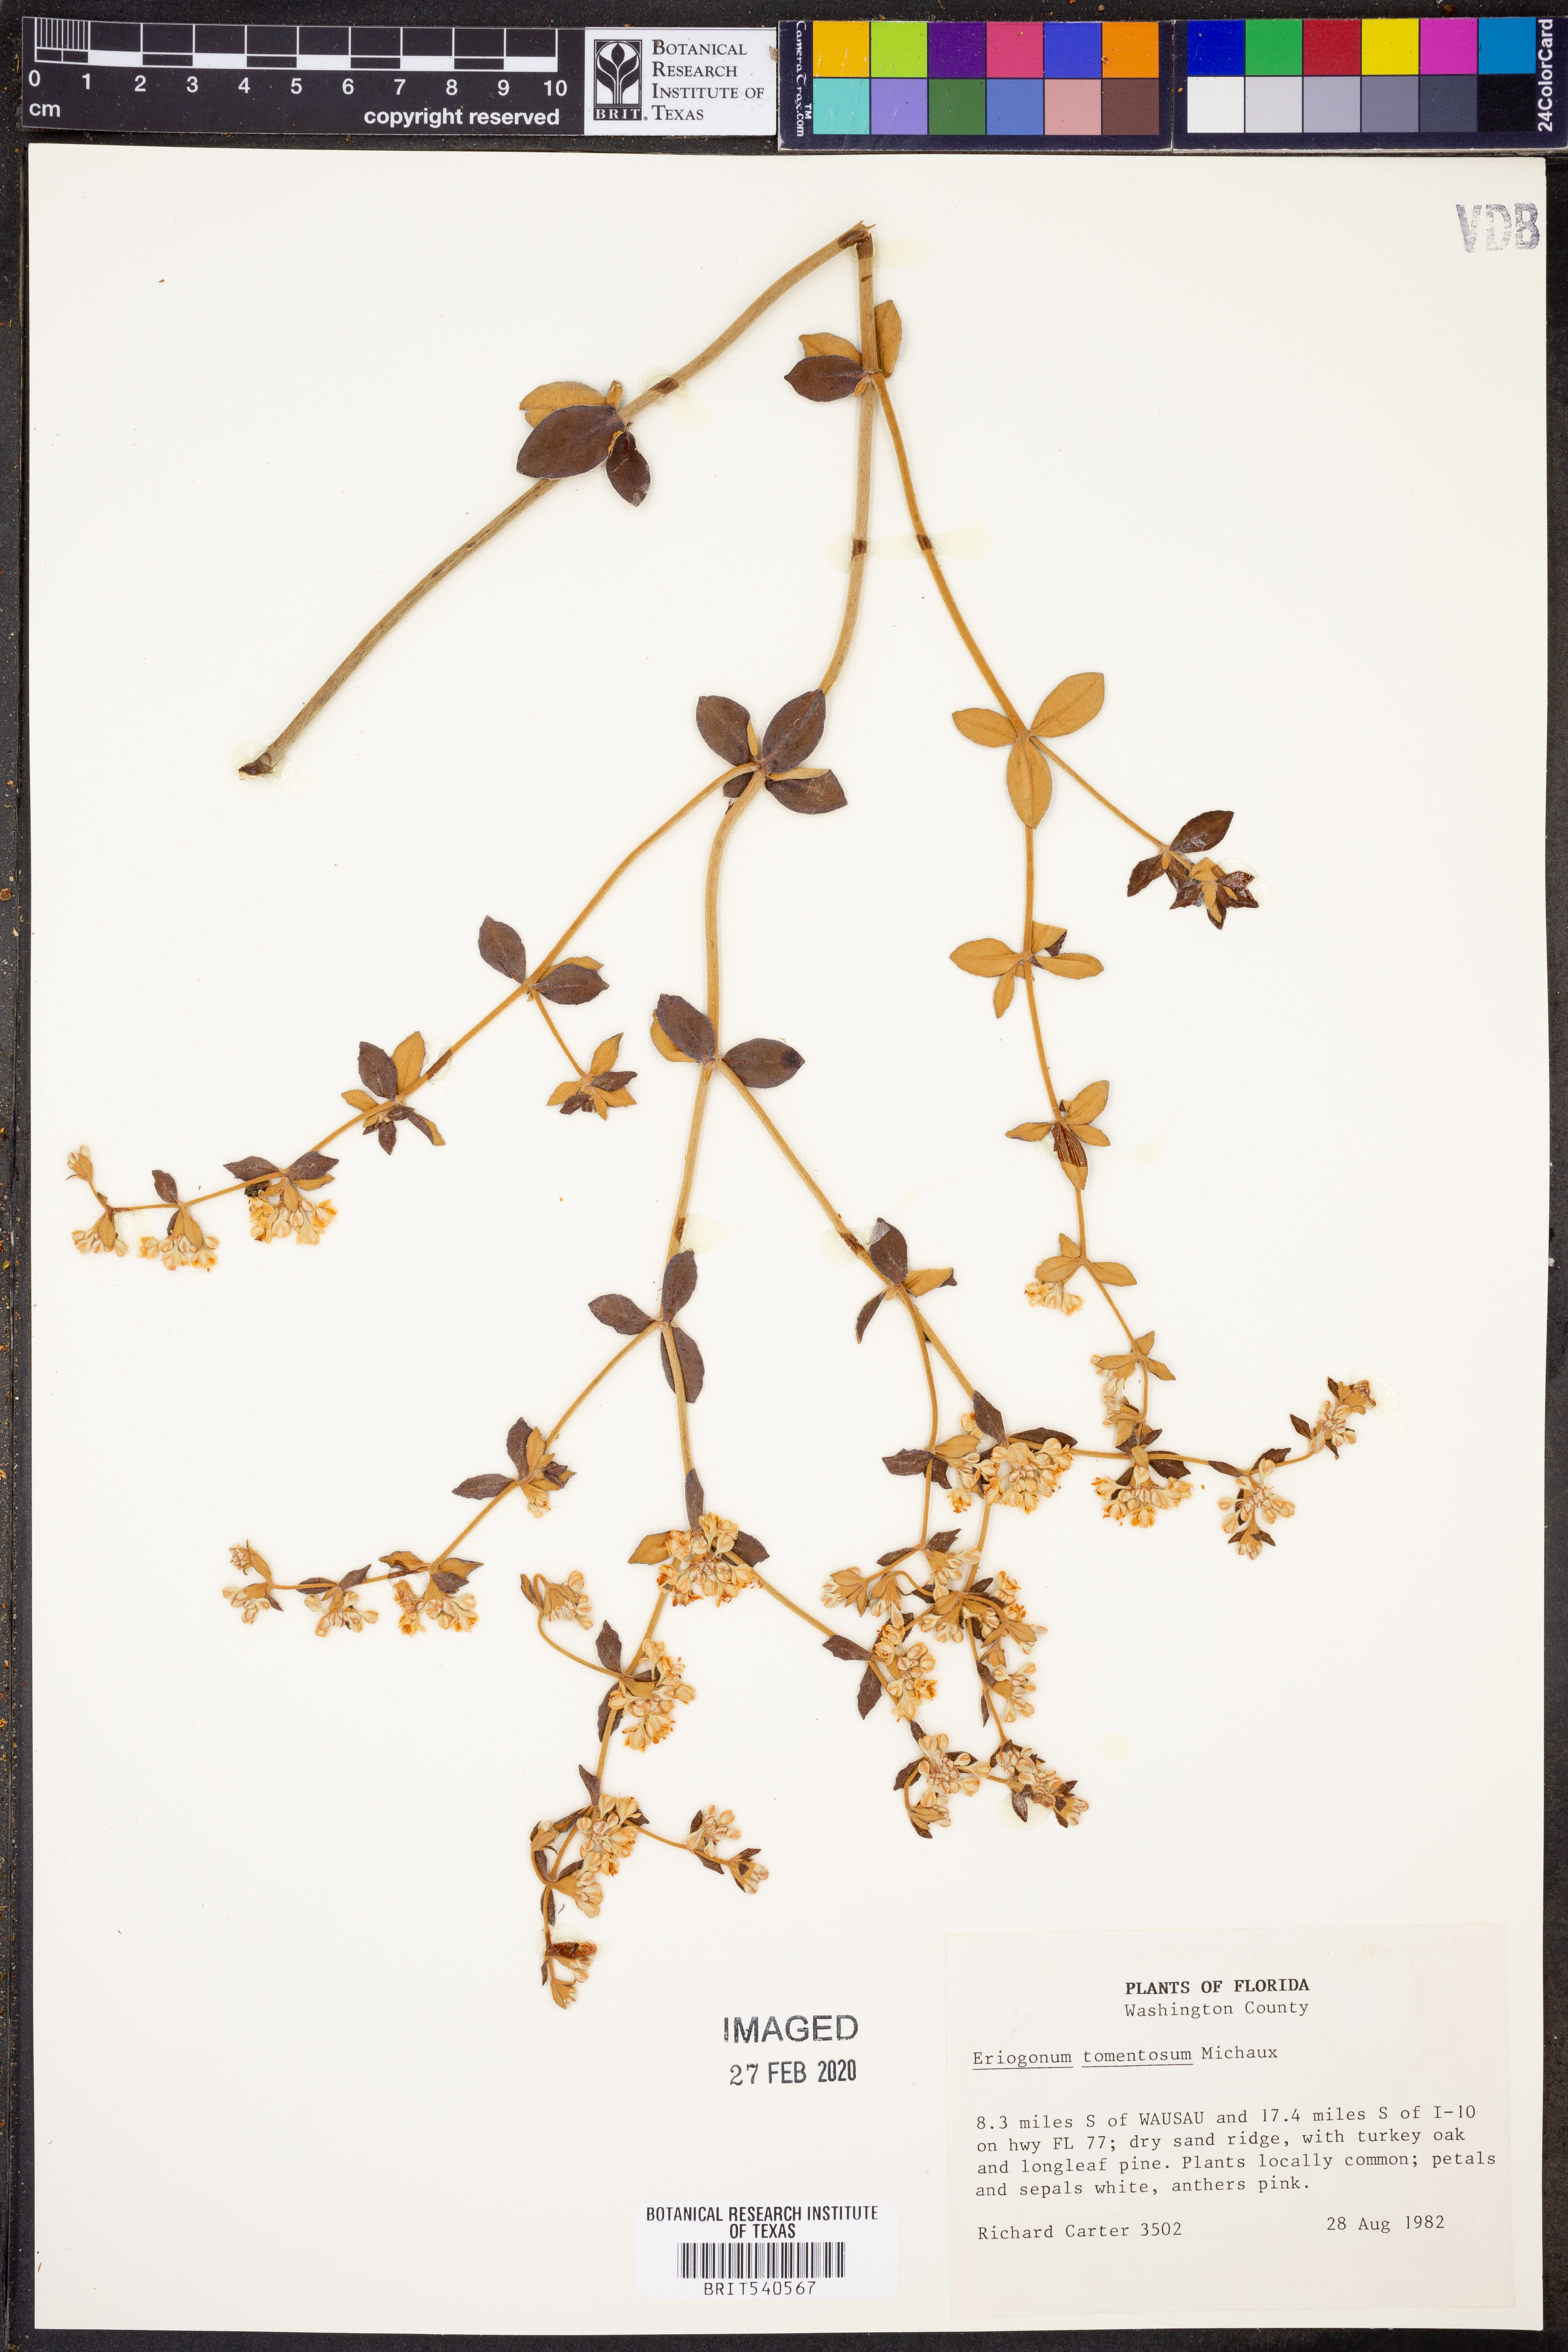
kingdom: Plantae
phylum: Tracheophyta
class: Magnoliopsida
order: Caryophyllales
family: Polygonaceae
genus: Eriogonum
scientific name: Eriogonum tomentosum
